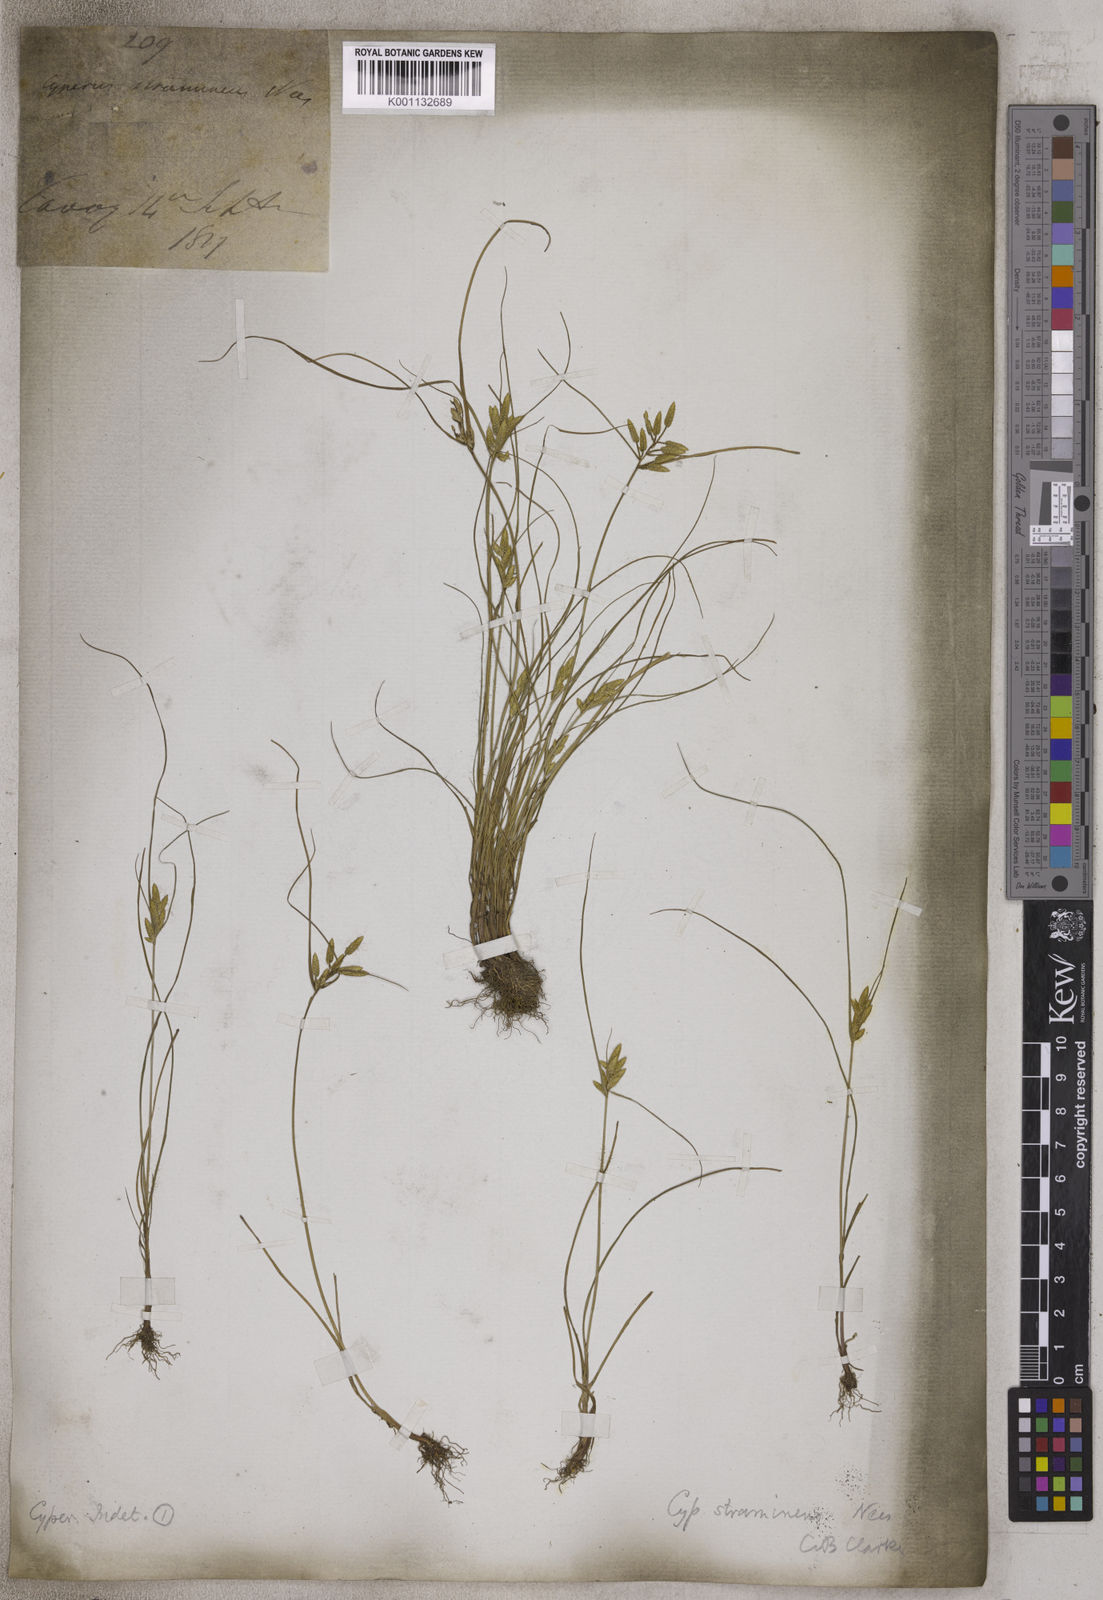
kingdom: Plantae
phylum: Tracheophyta
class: Liliopsida
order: Poales
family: Cyperaceae
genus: Cyperus
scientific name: Cyperus substramineus
